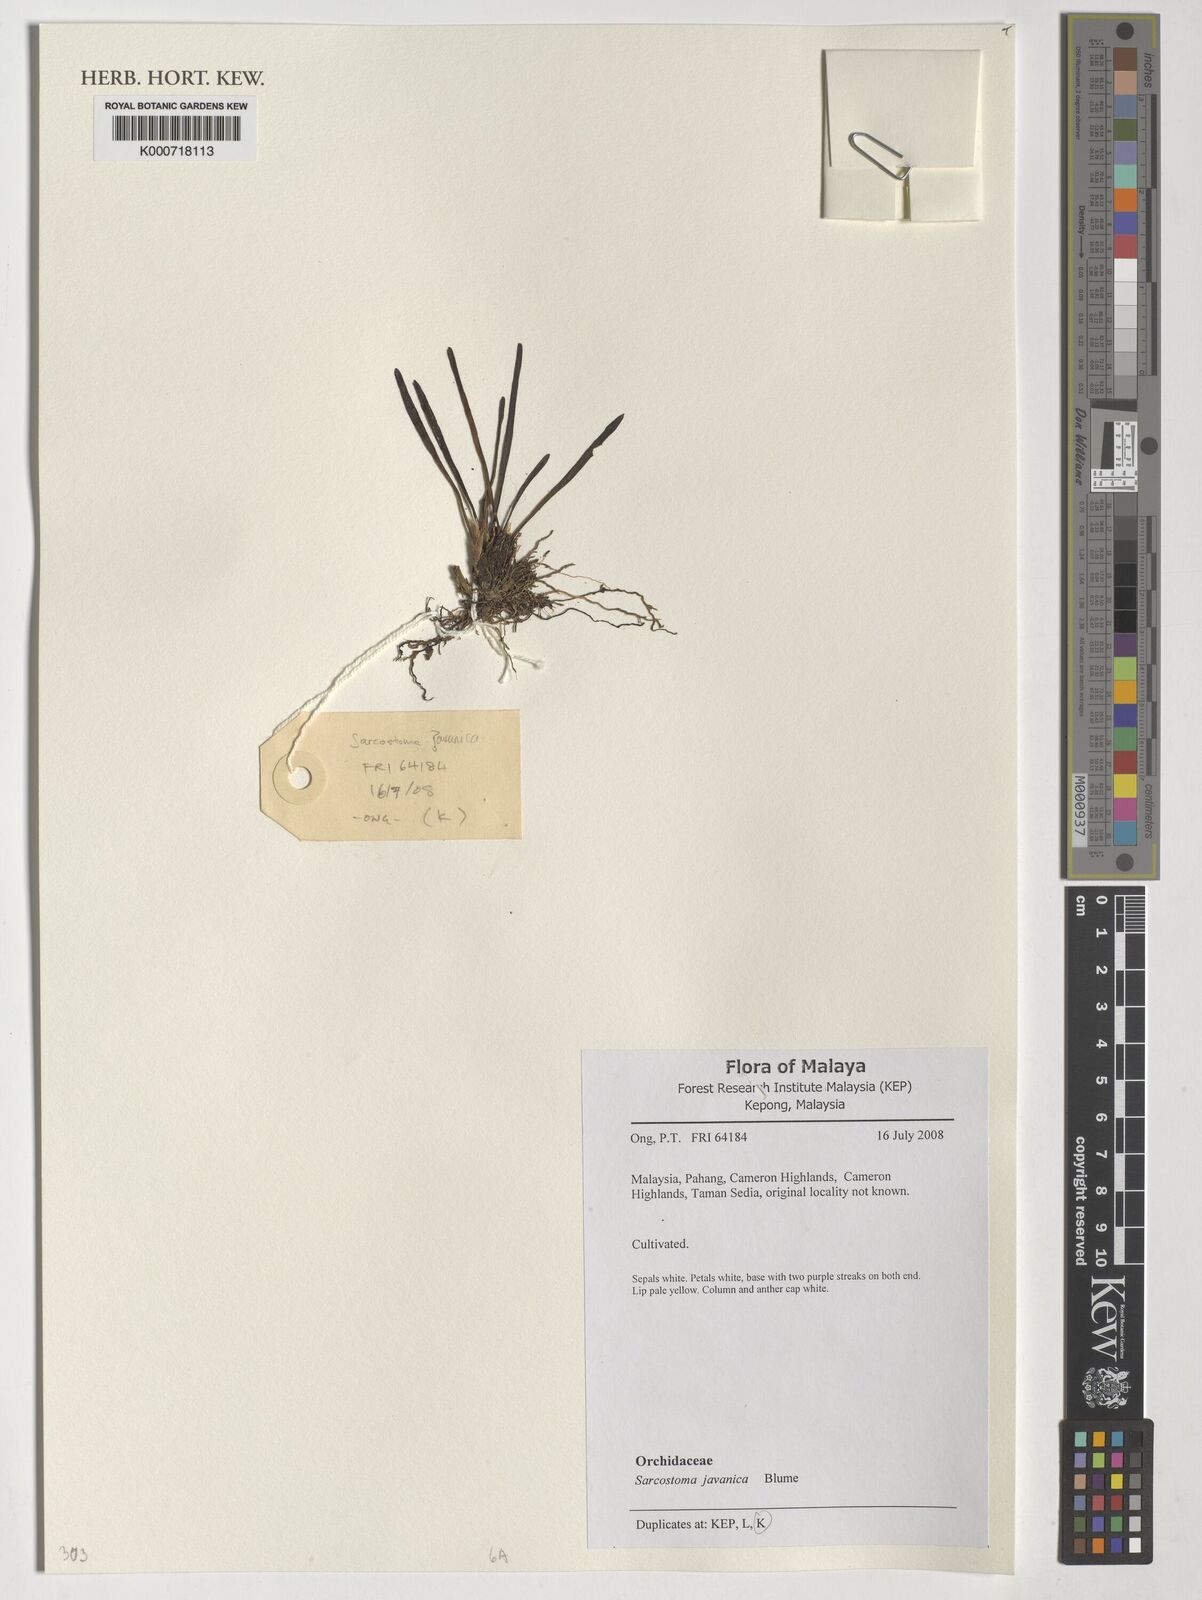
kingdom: Plantae
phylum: Tracheophyta
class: Liliopsida
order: Asparagales
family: Orchidaceae
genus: Ceratostylis
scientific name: Ceratostylis javanica
